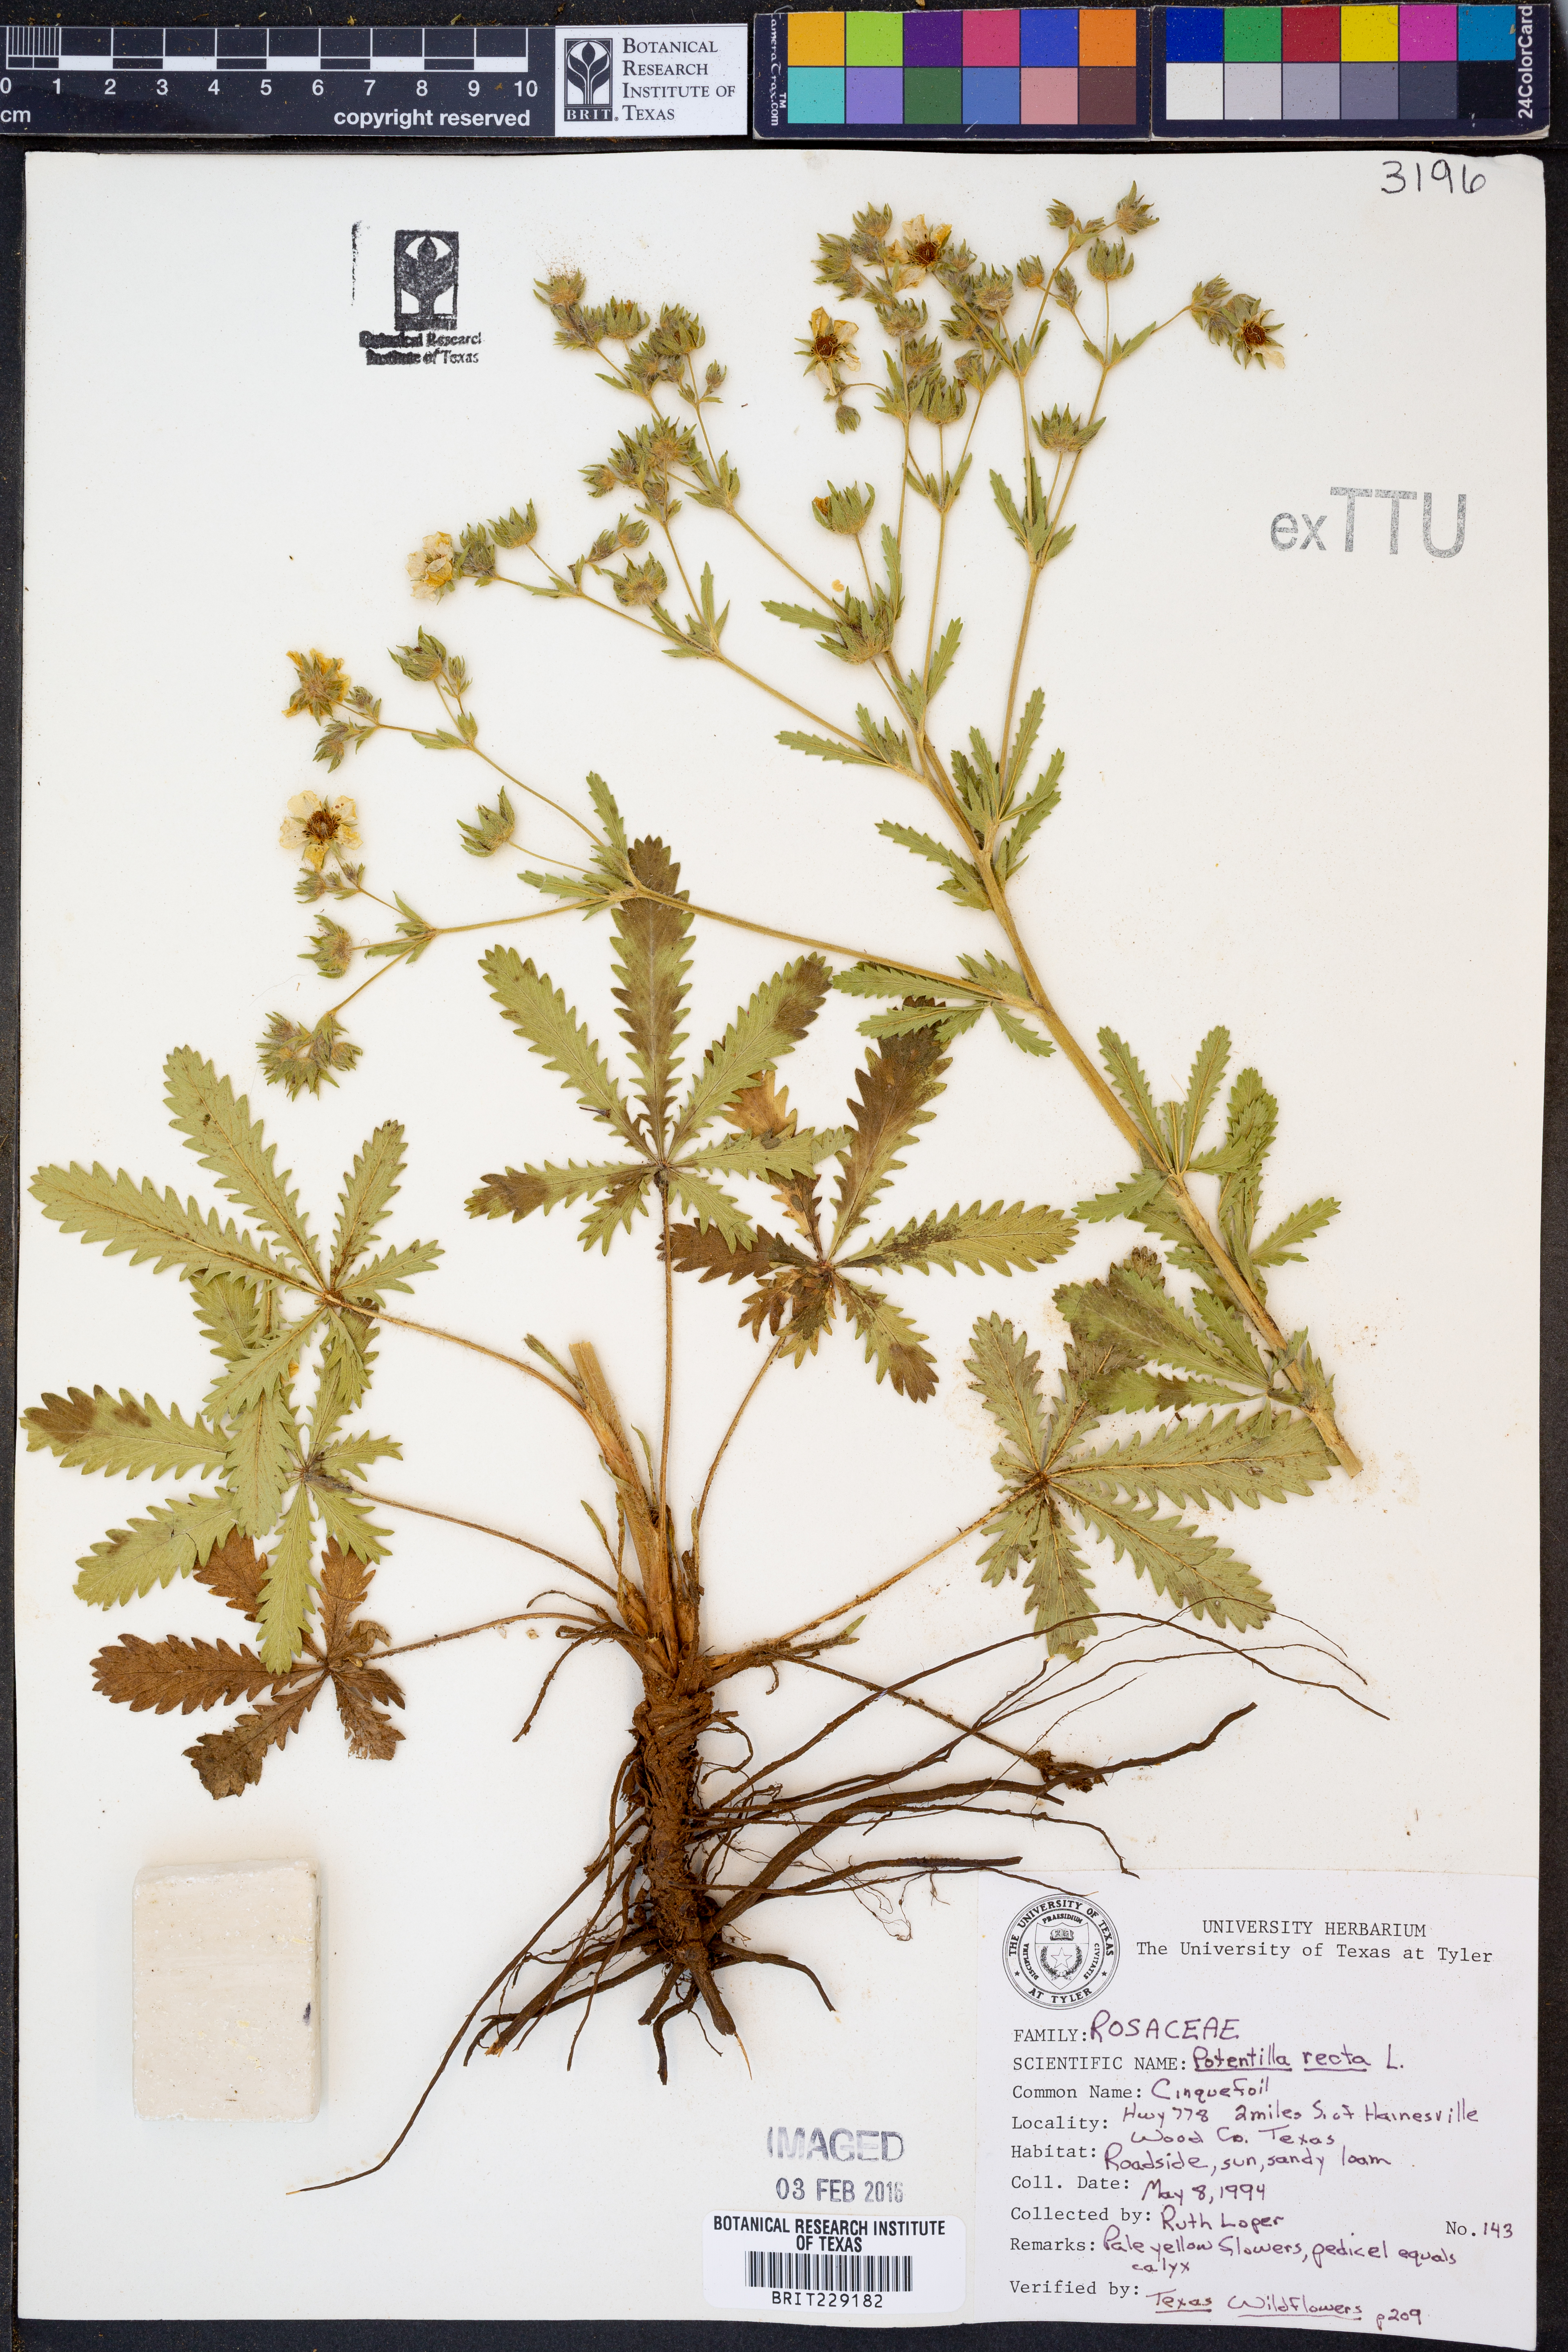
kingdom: Plantae
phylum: Tracheophyta
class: Magnoliopsida
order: Rosales
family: Rosaceae
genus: Potentilla
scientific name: Potentilla recta
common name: Sulphur cinquefoil
